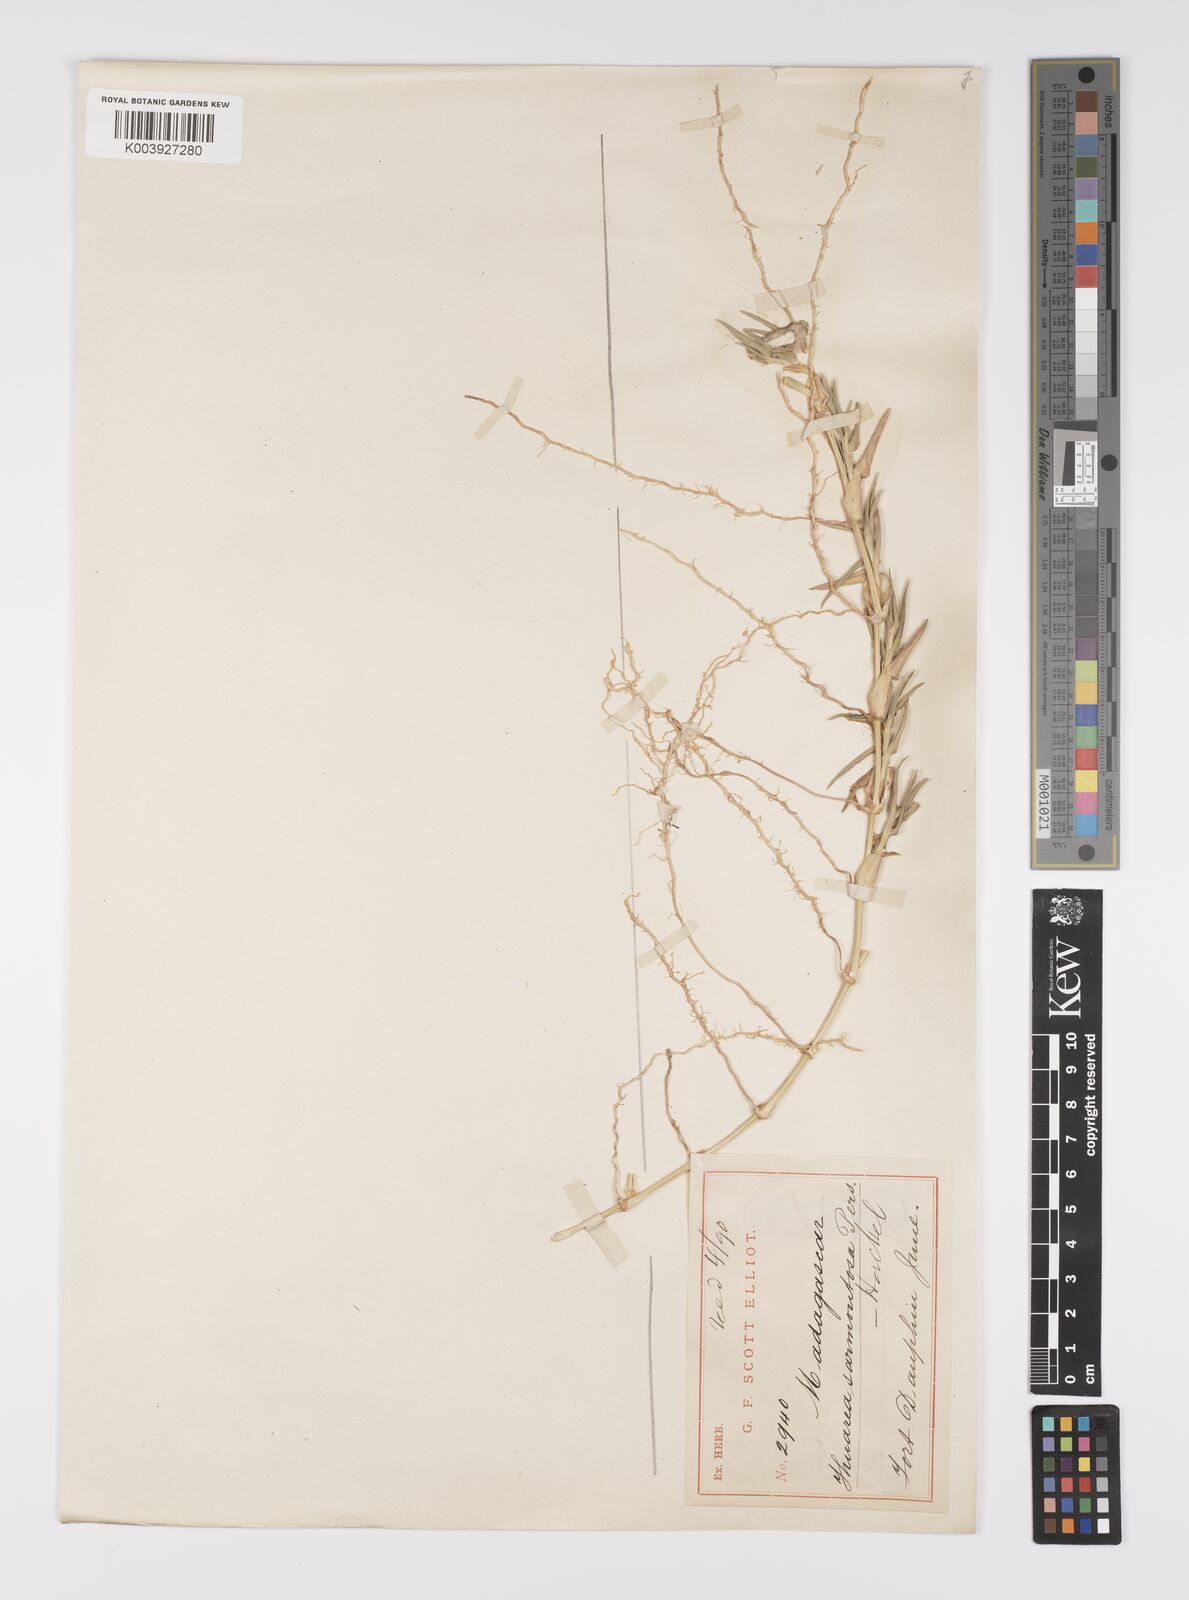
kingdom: Plantae
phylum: Tracheophyta
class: Liliopsida
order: Poales
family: Poaceae
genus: Thuarea
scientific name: Thuarea involuta
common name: Tropical beach grass
